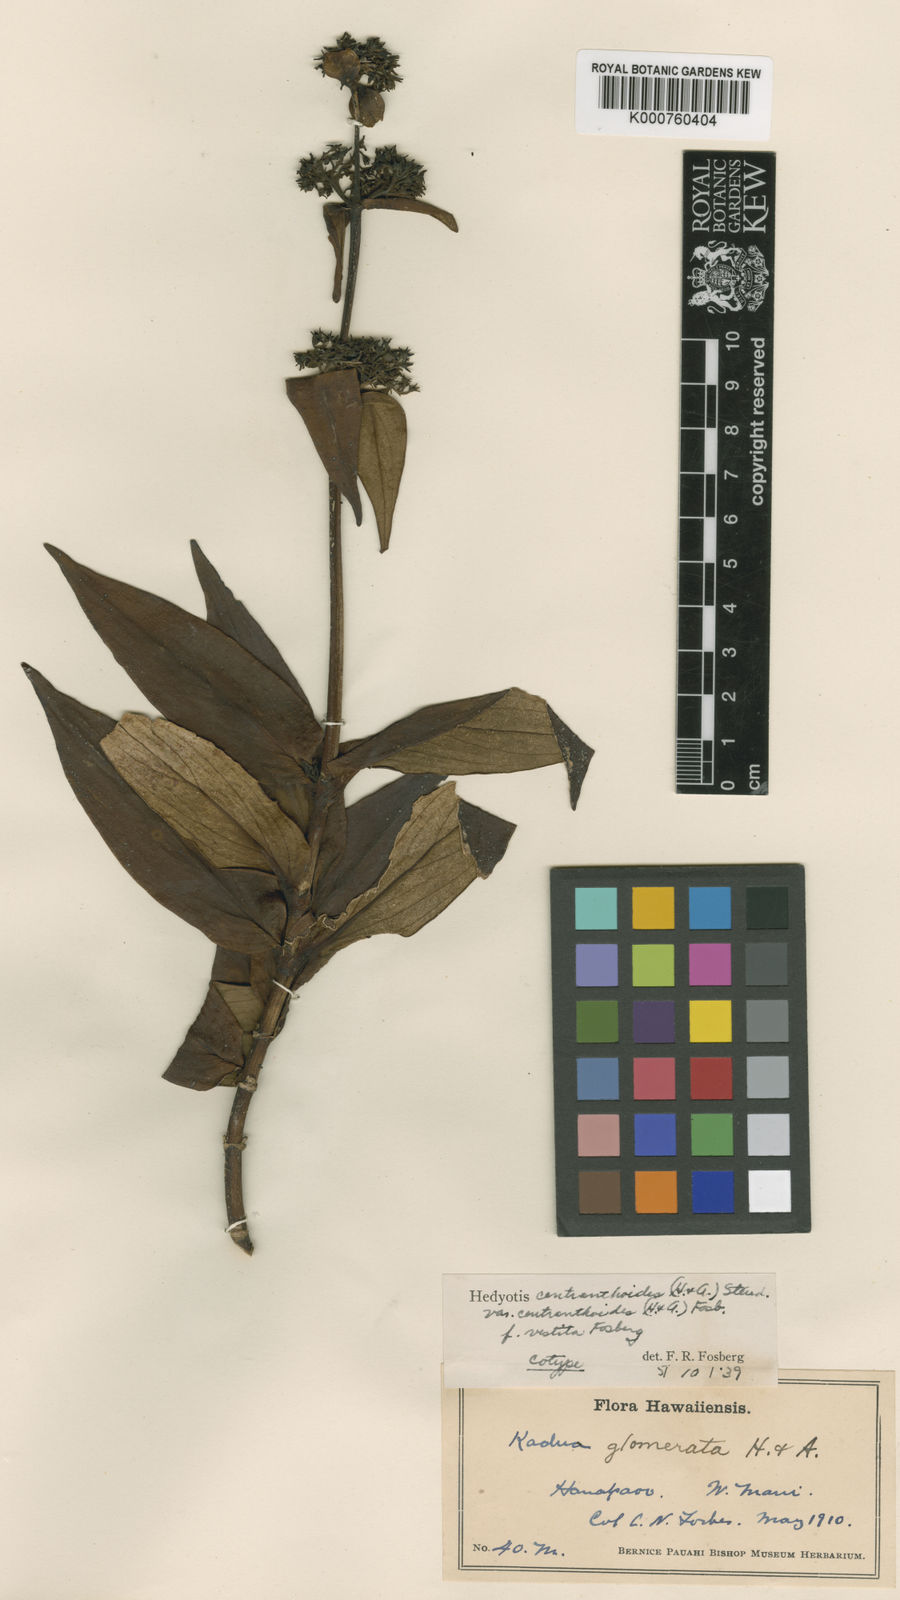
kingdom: Plantae
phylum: Tracheophyta
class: Magnoliopsida
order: Gentianales
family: Rubiaceae
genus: Kadua
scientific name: Kadua centranthoides
